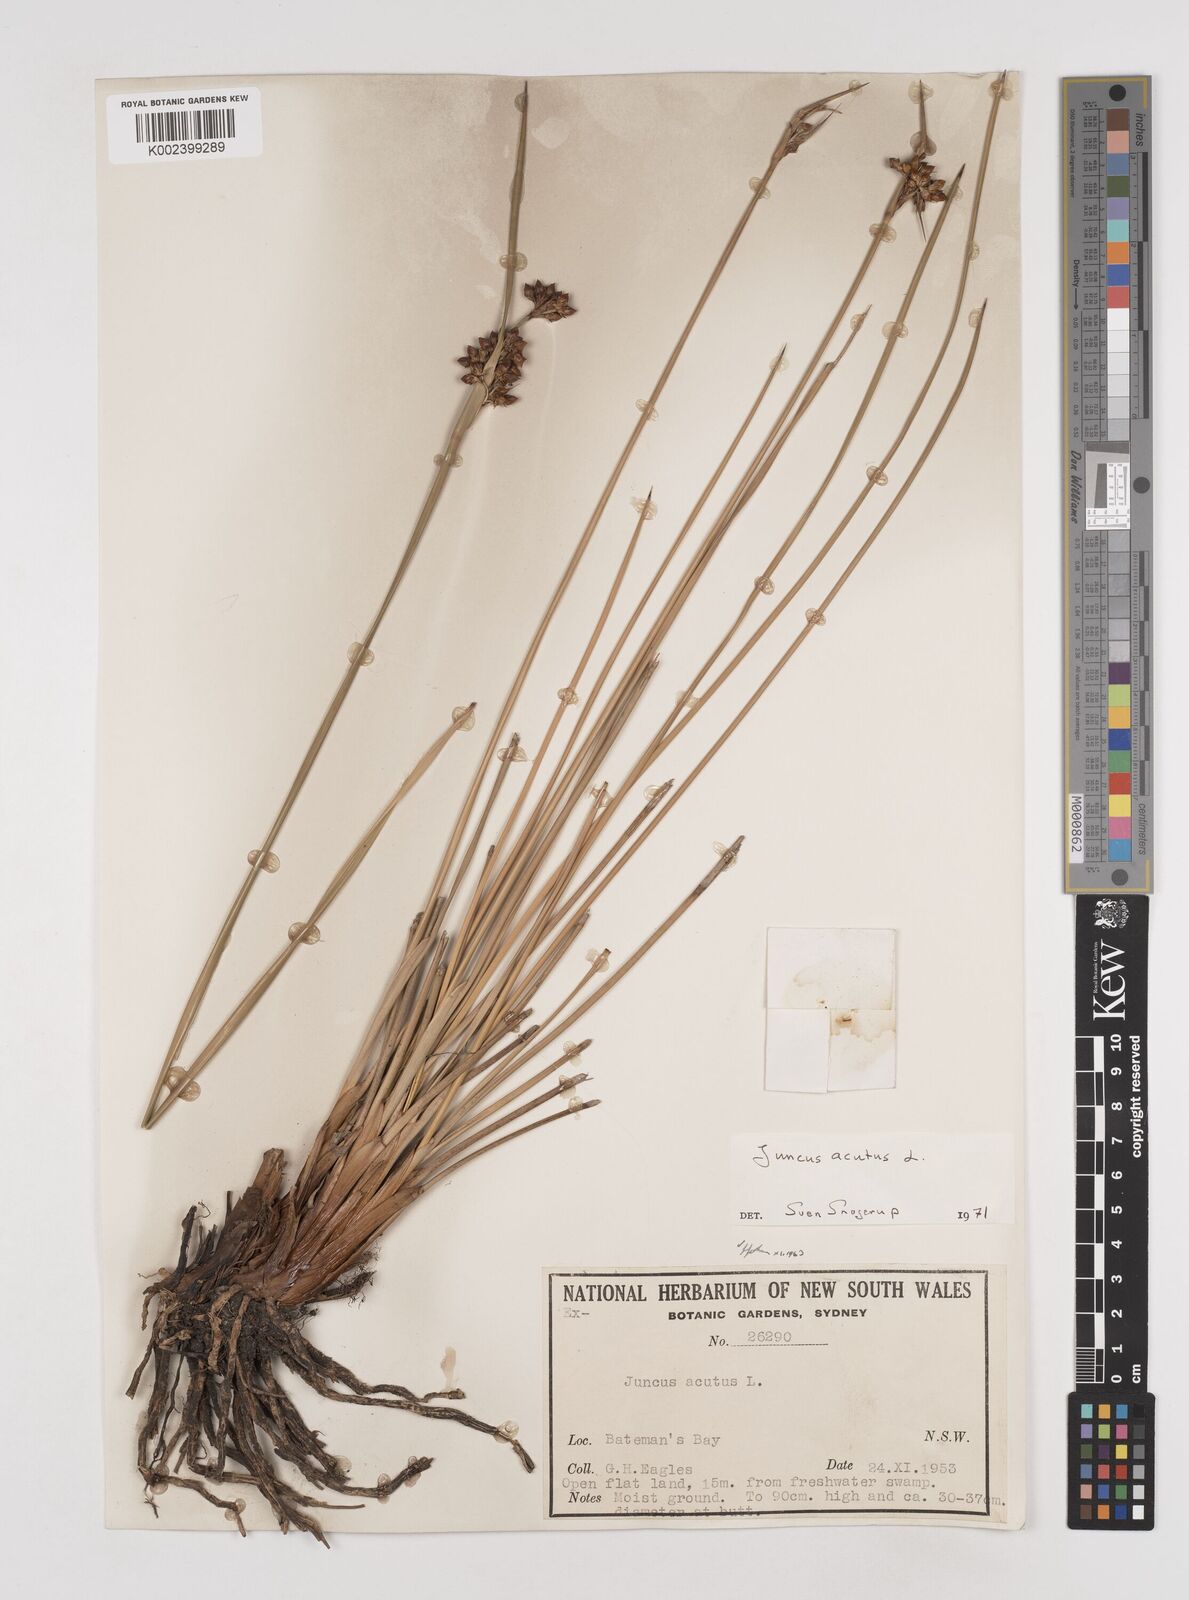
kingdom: Plantae
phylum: Tracheophyta
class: Liliopsida
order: Poales
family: Juncaceae
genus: Juncus
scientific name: Juncus acutus
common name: Sharp rush
